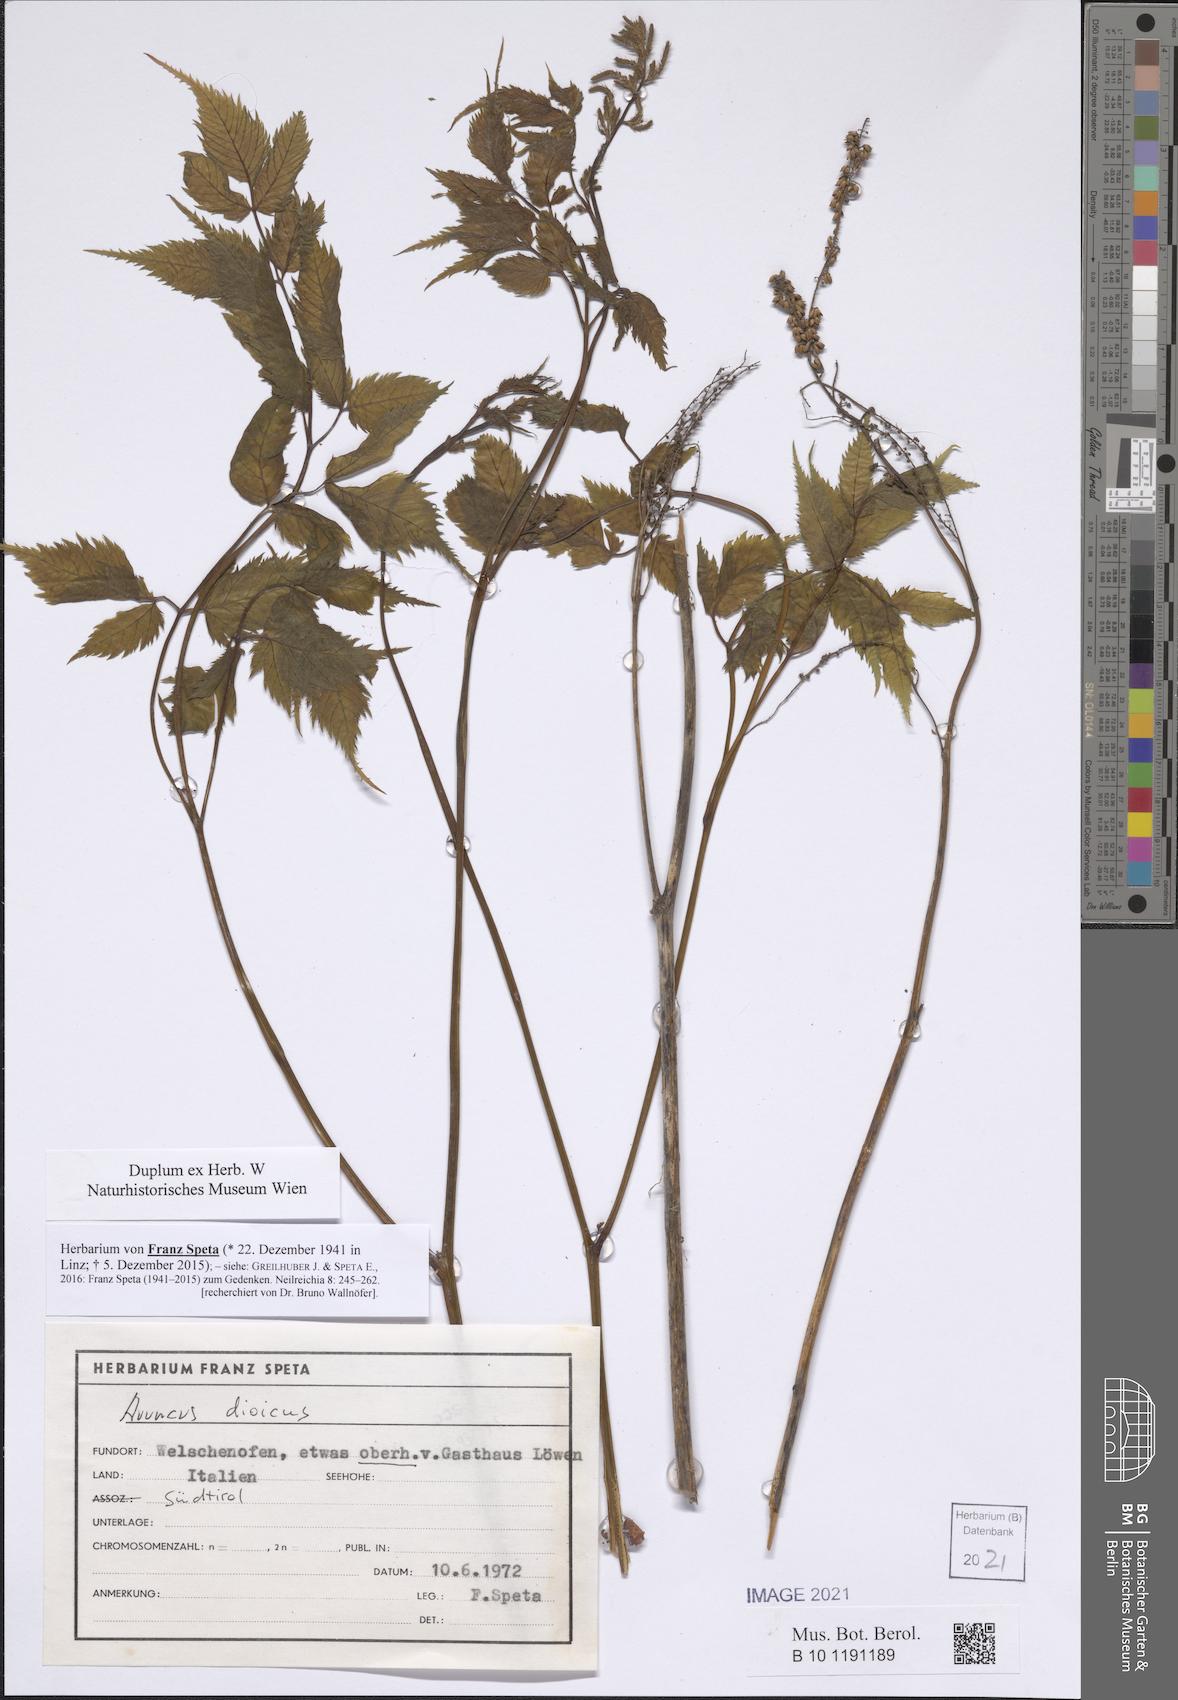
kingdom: Plantae
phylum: Tracheophyta
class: Magnoliopsida
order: Rosales
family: Rosaceae
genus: Aruncus
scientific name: Aruncus dioicus
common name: Buck's-beard
